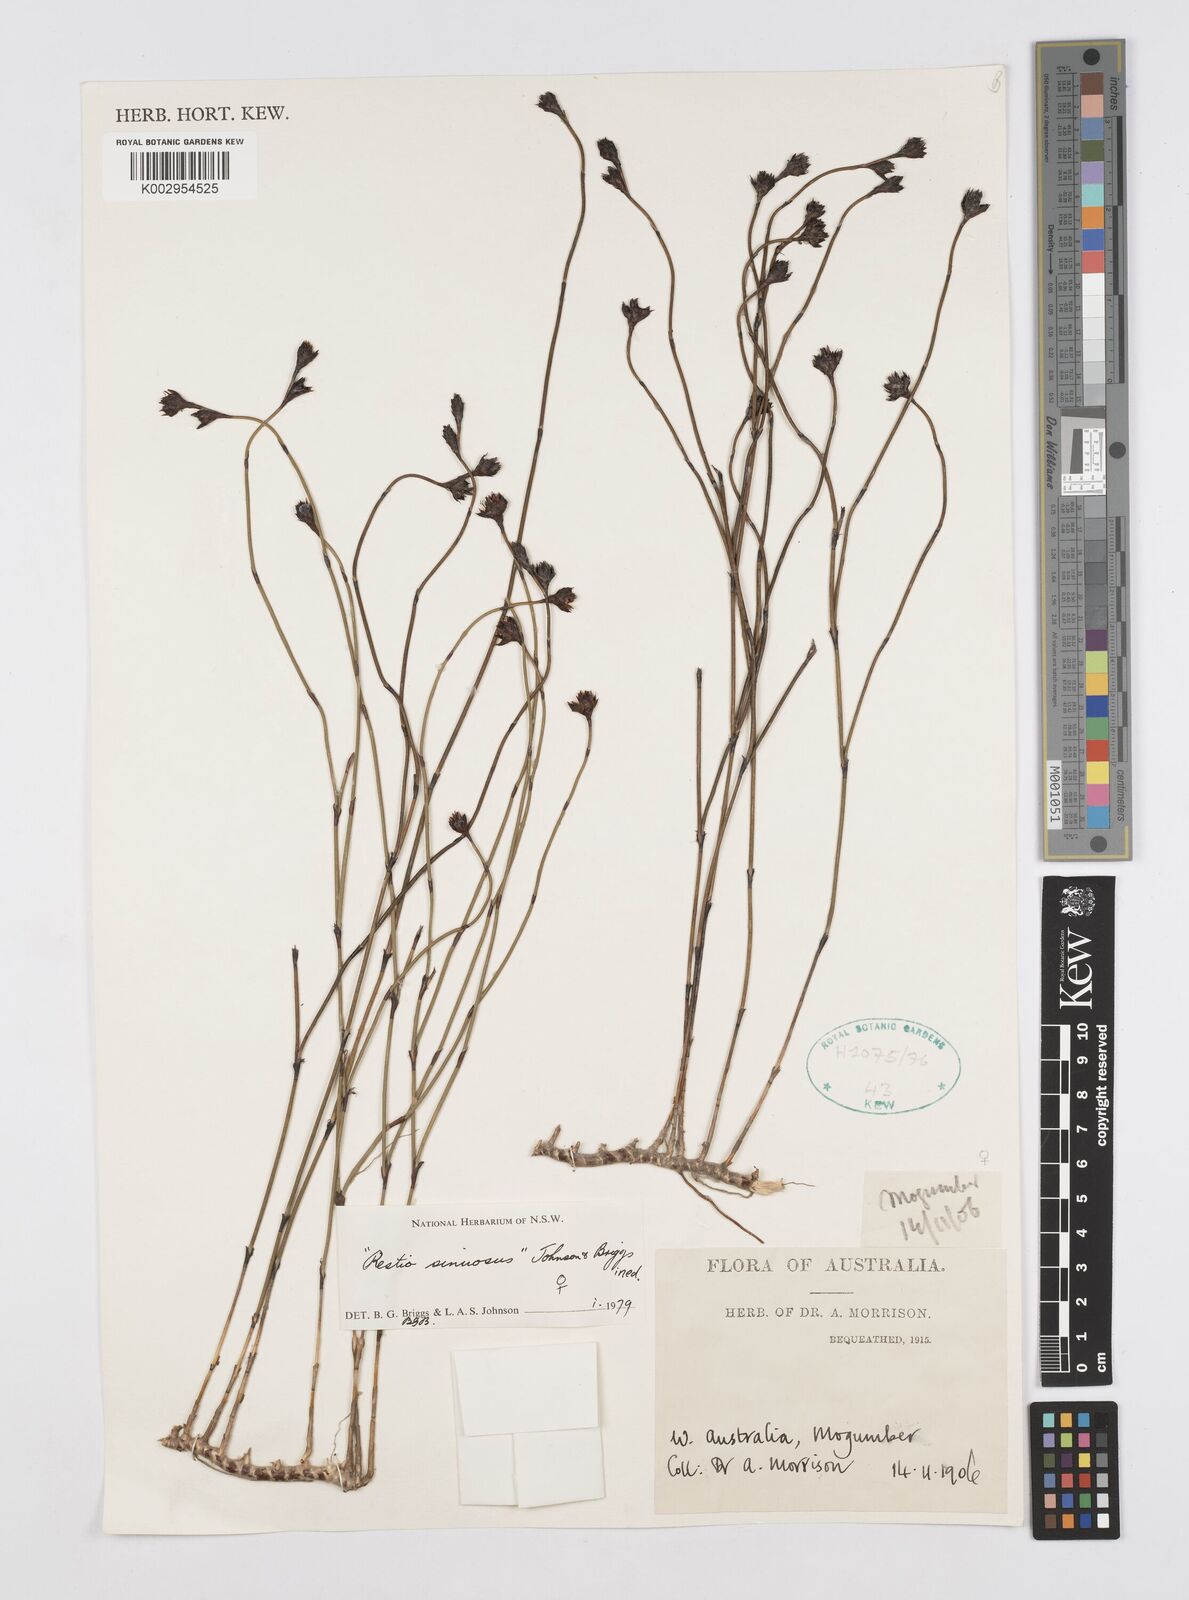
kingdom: Plantae
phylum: Tracheophyta
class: Liliopsida
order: Poales
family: Restionaceae
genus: Chordifex
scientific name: Chordifex sinuosus
